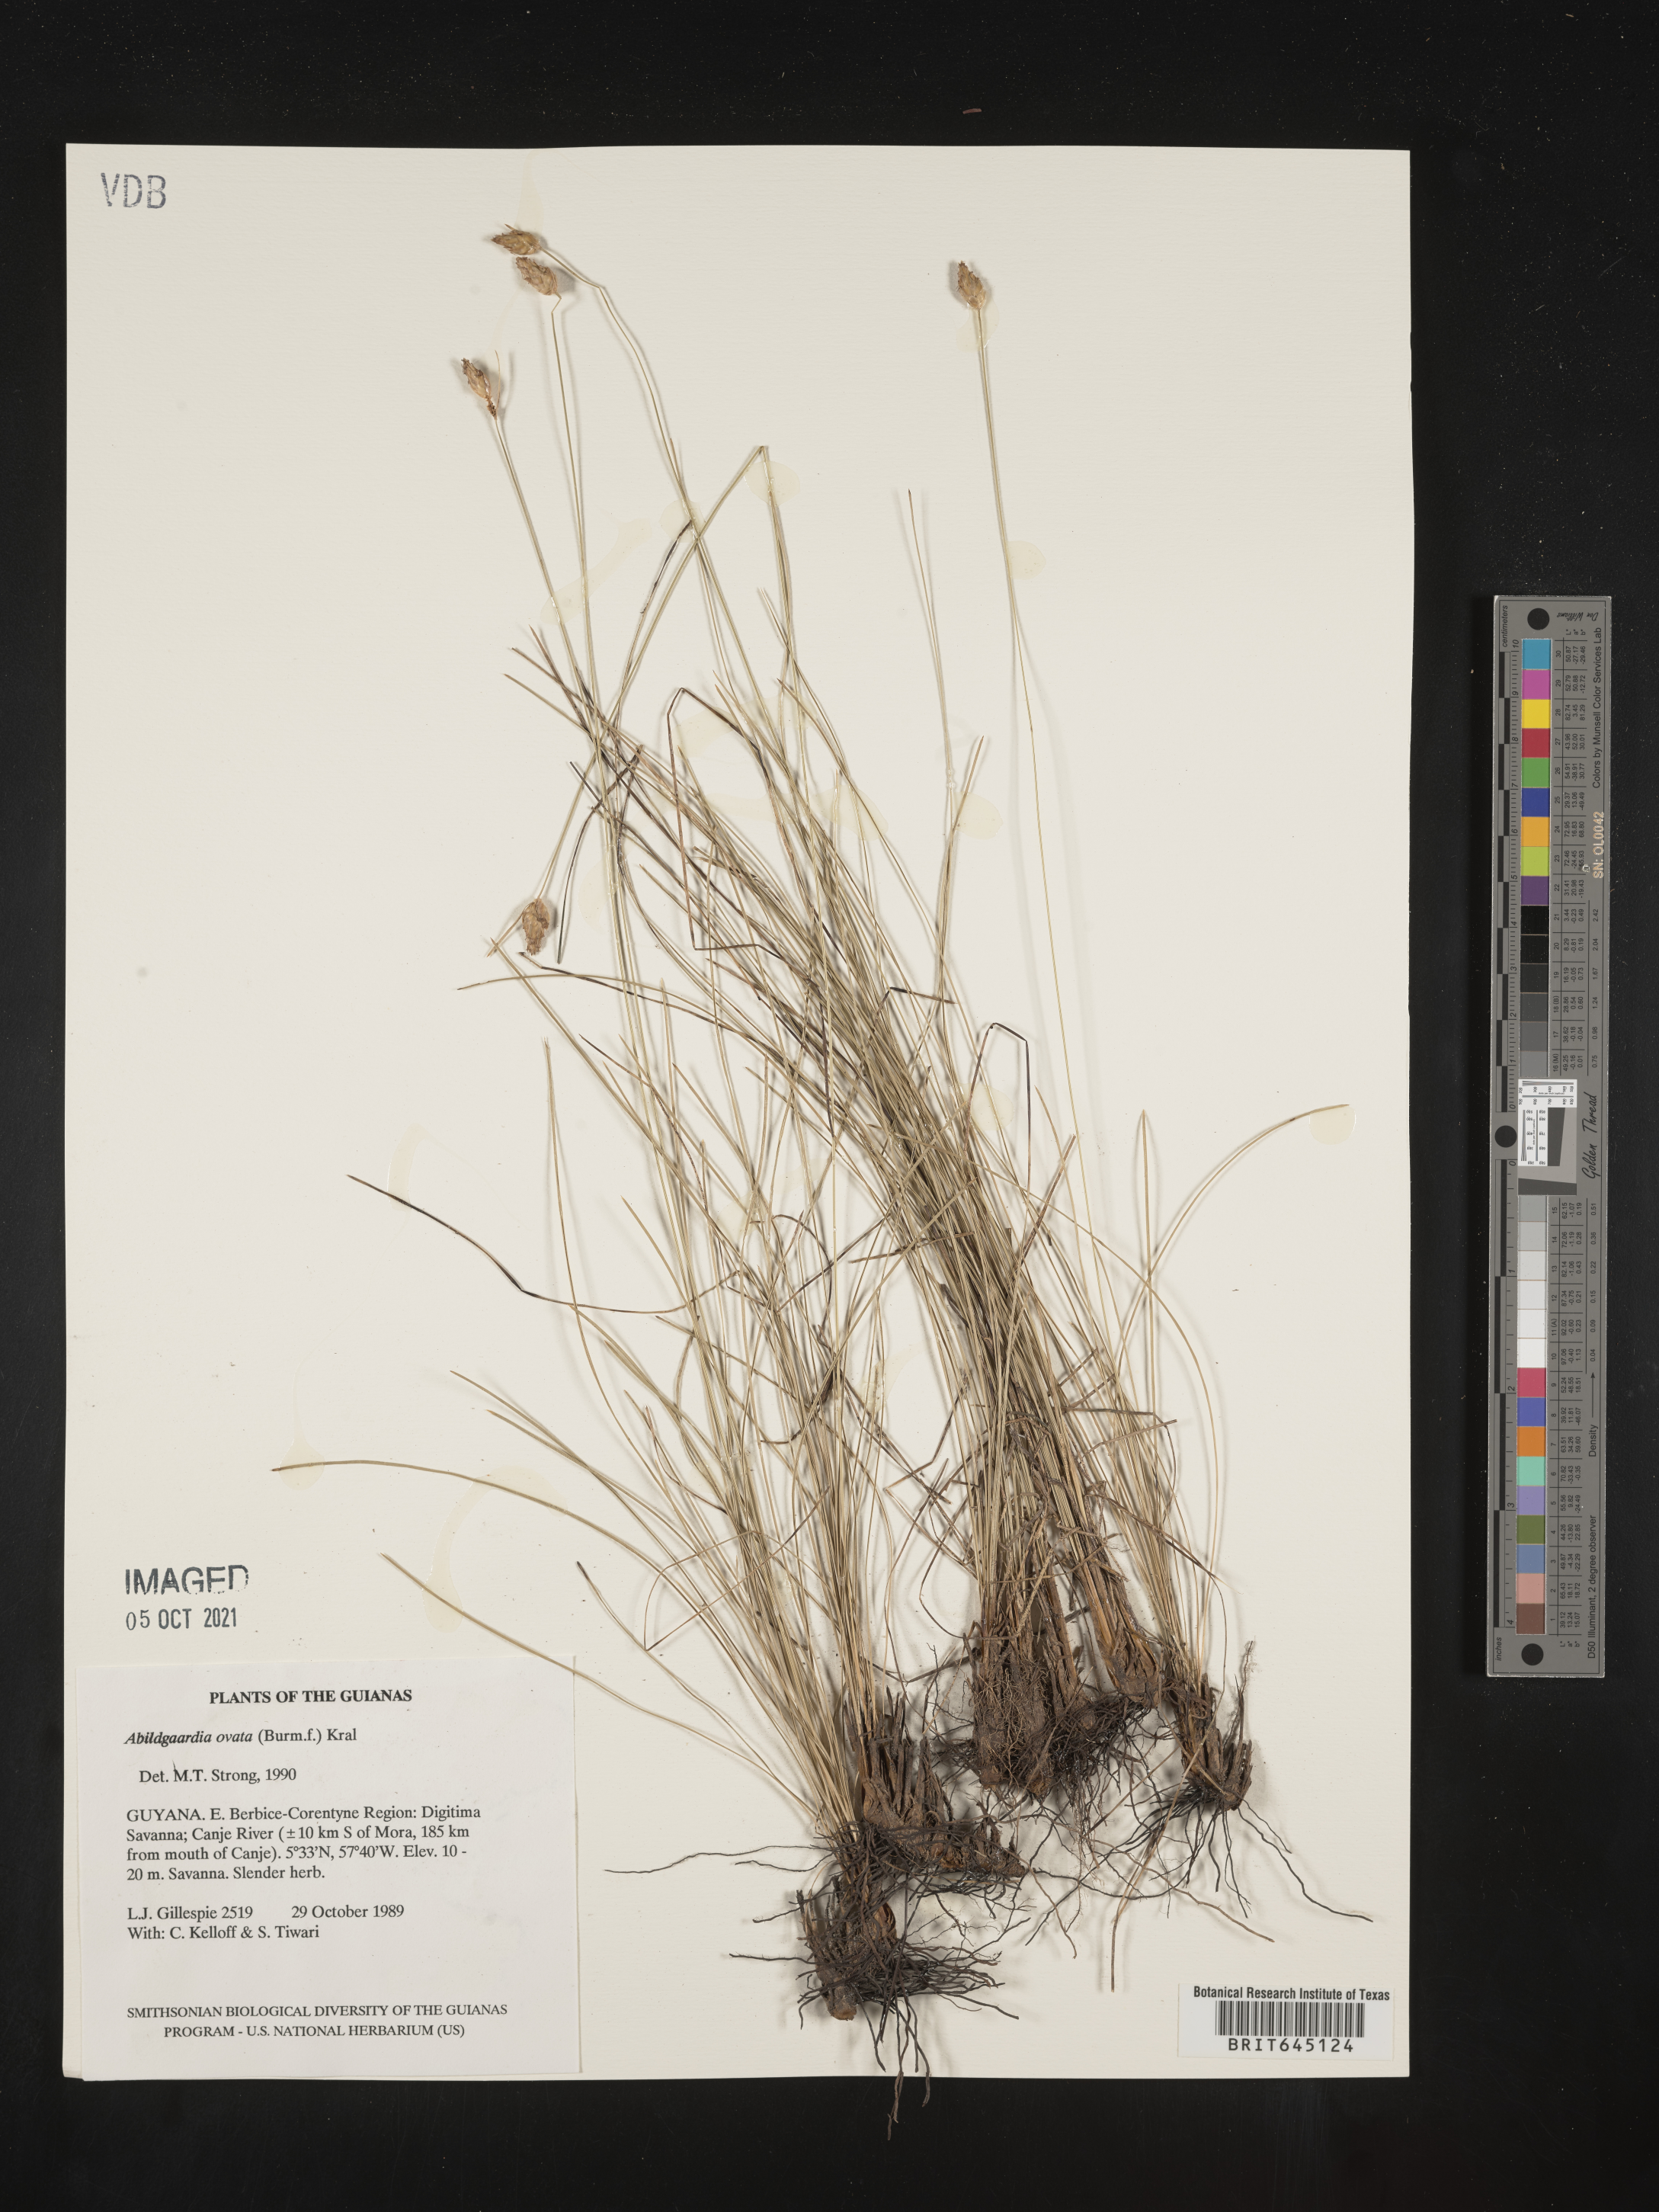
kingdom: Plantae
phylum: Tracheophyta
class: Liliopsida
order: Poales
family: Cyperaceae
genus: Abildgaardia
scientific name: Abildgaardia ovata
